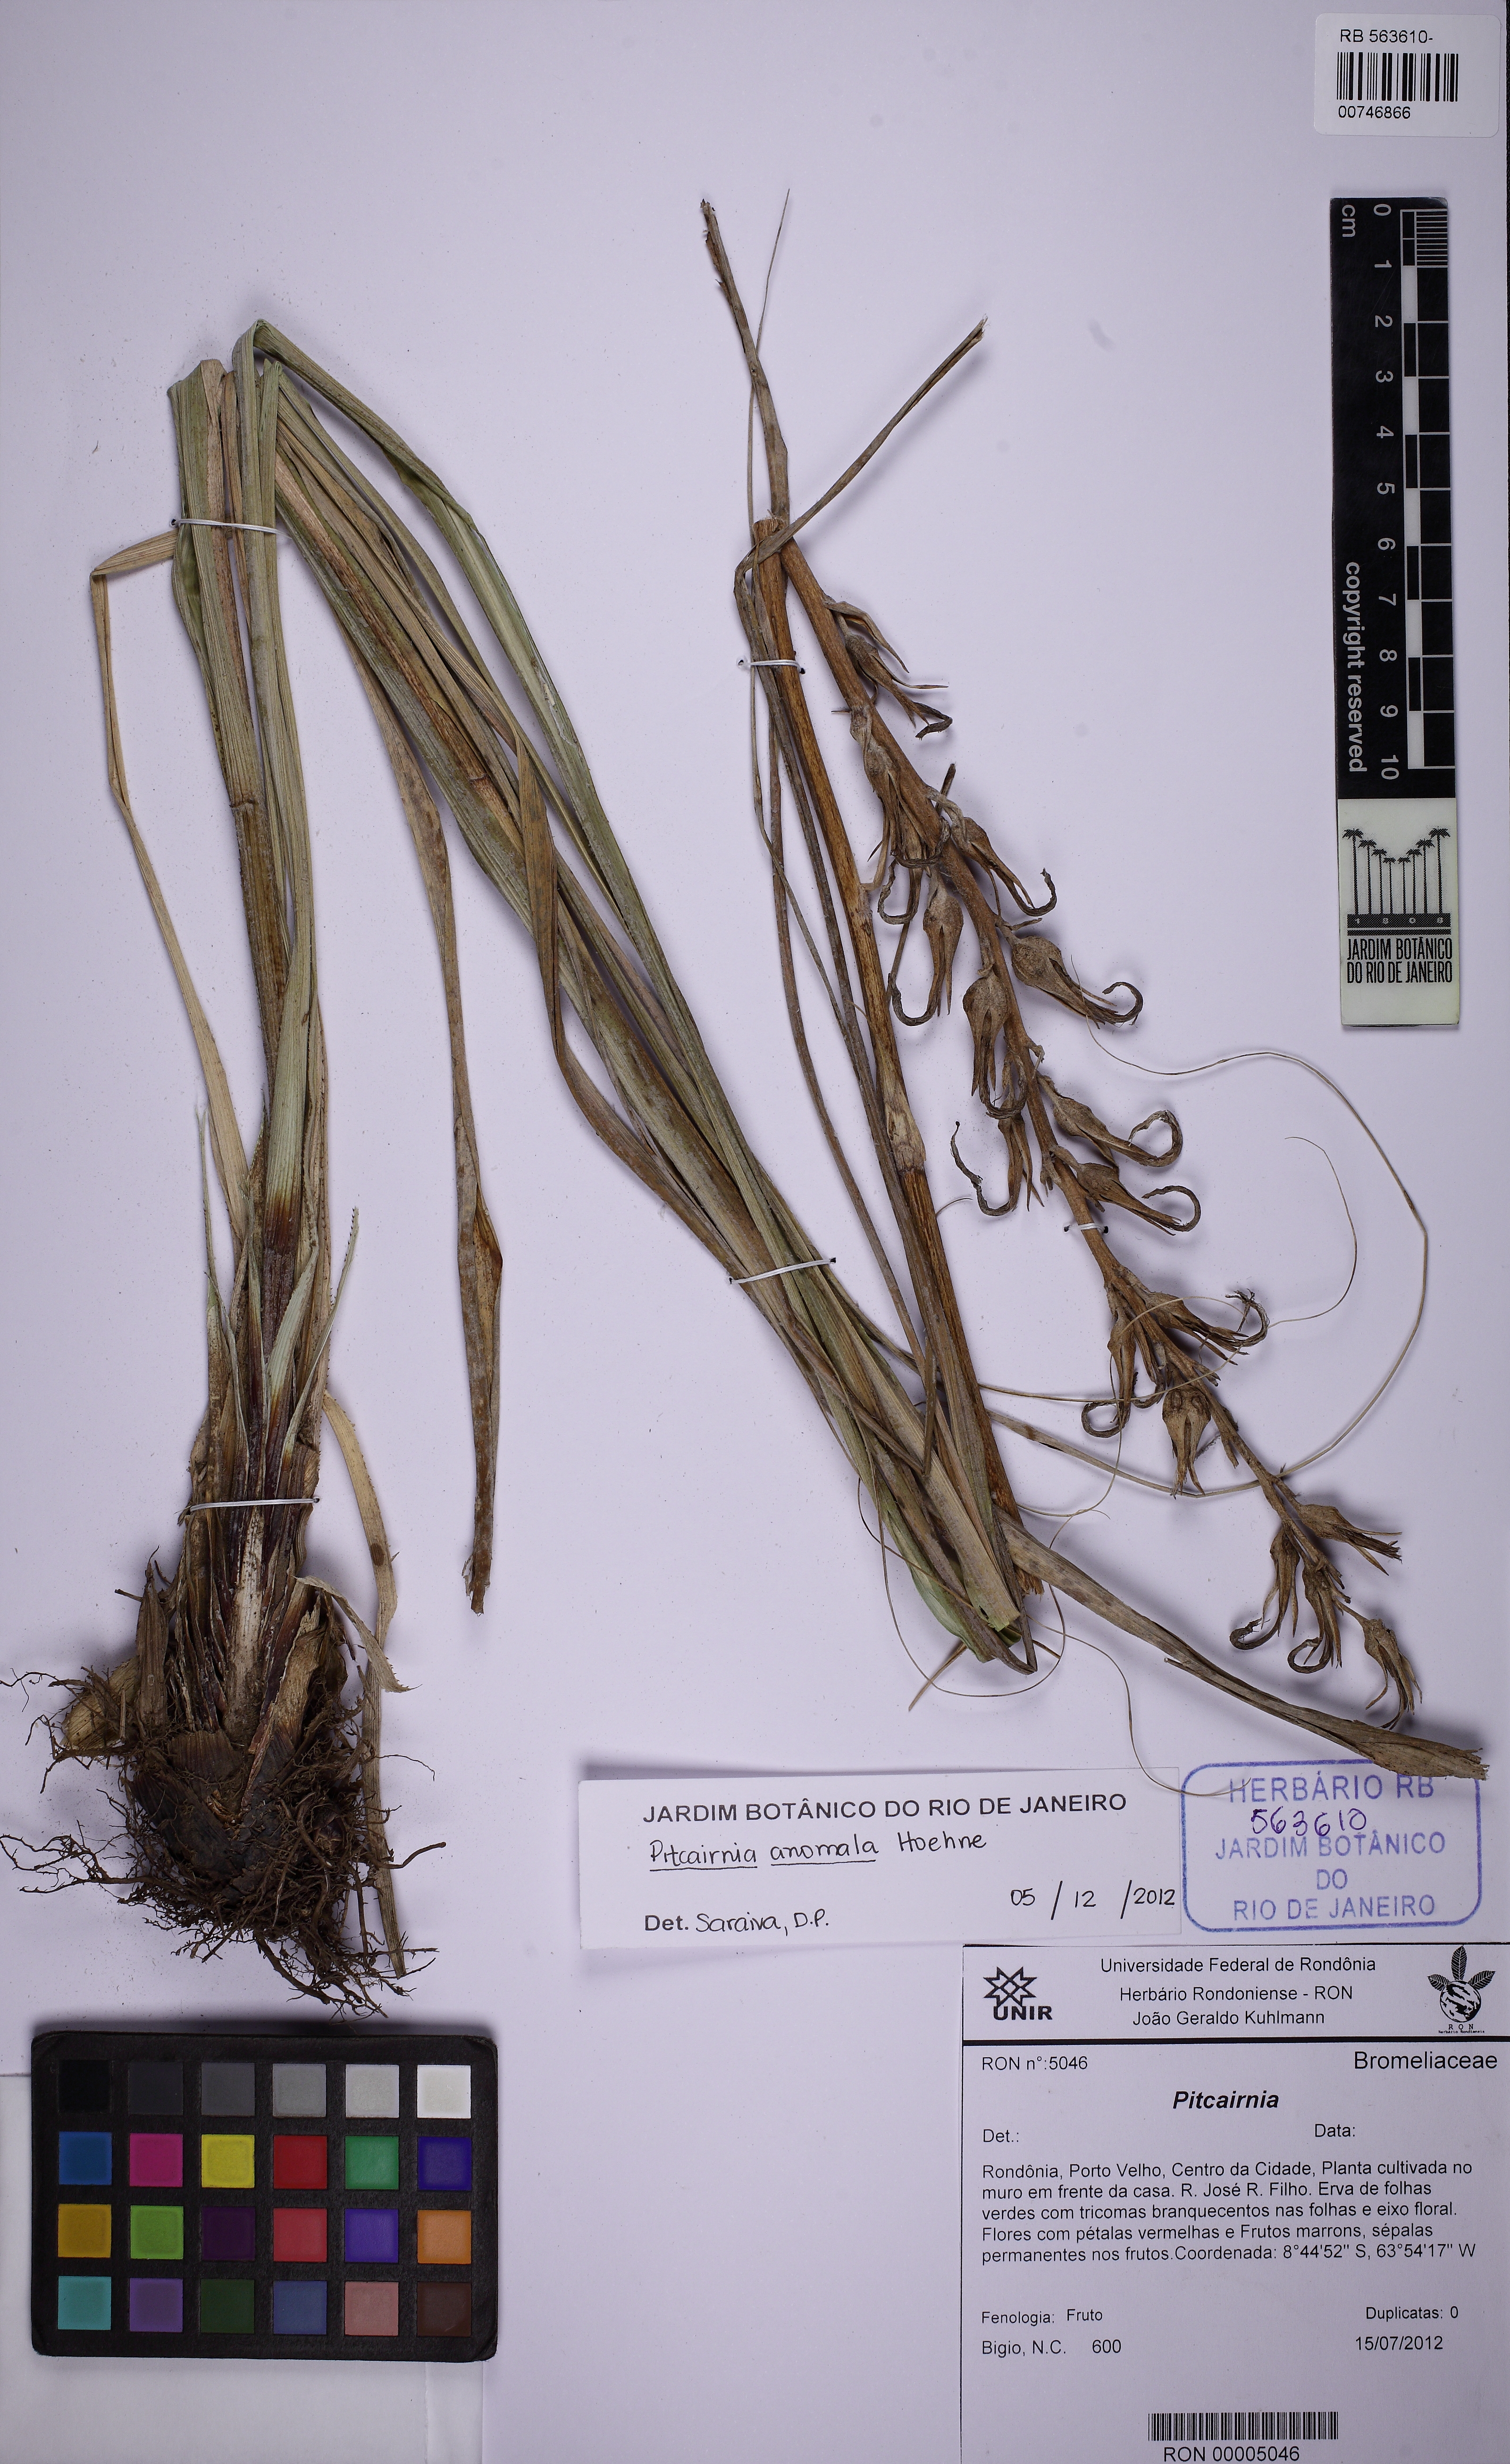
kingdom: Plantae
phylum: Tracheophyta
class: Liliopsida
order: Poales
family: Bromeliaceae
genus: Pitcairnia
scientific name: Pitcairnia anomala
